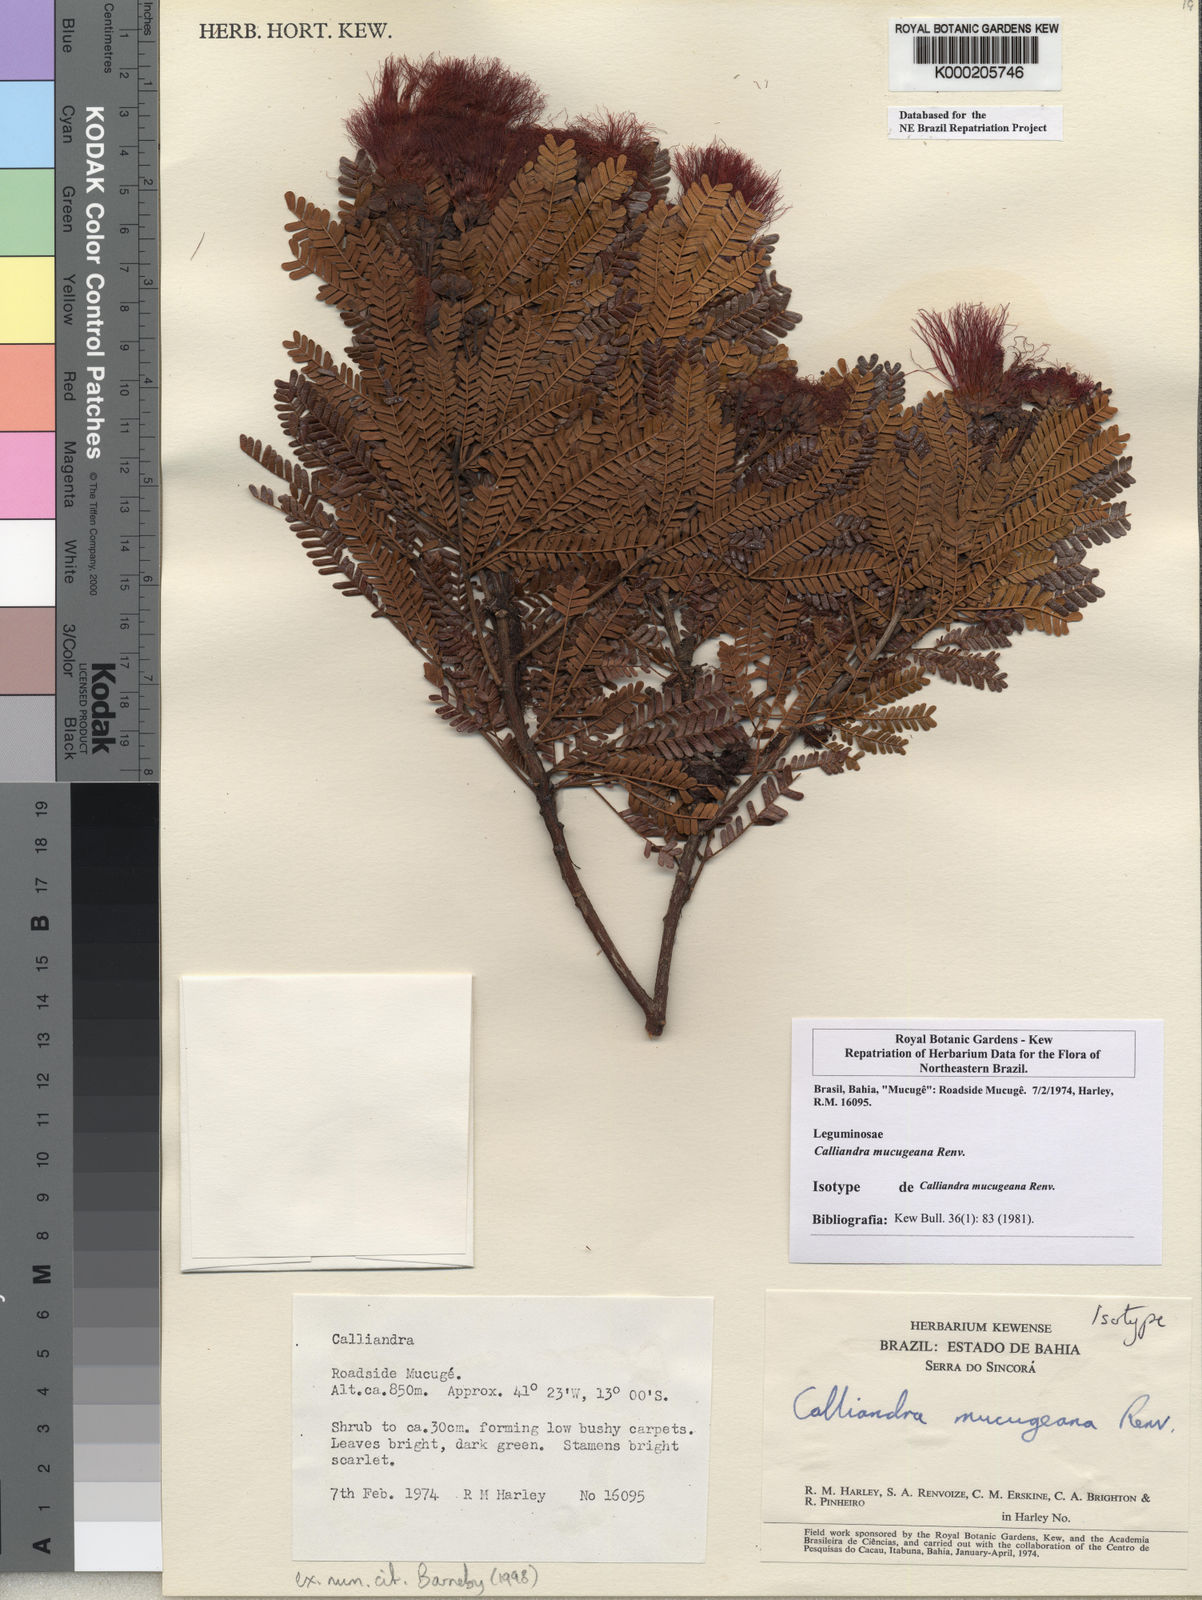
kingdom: Plantae
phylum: Tracheophyta
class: Magnoliopsida
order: Fabales
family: Fabaceae
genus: Calliandra
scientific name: Calliandra mucugeana
